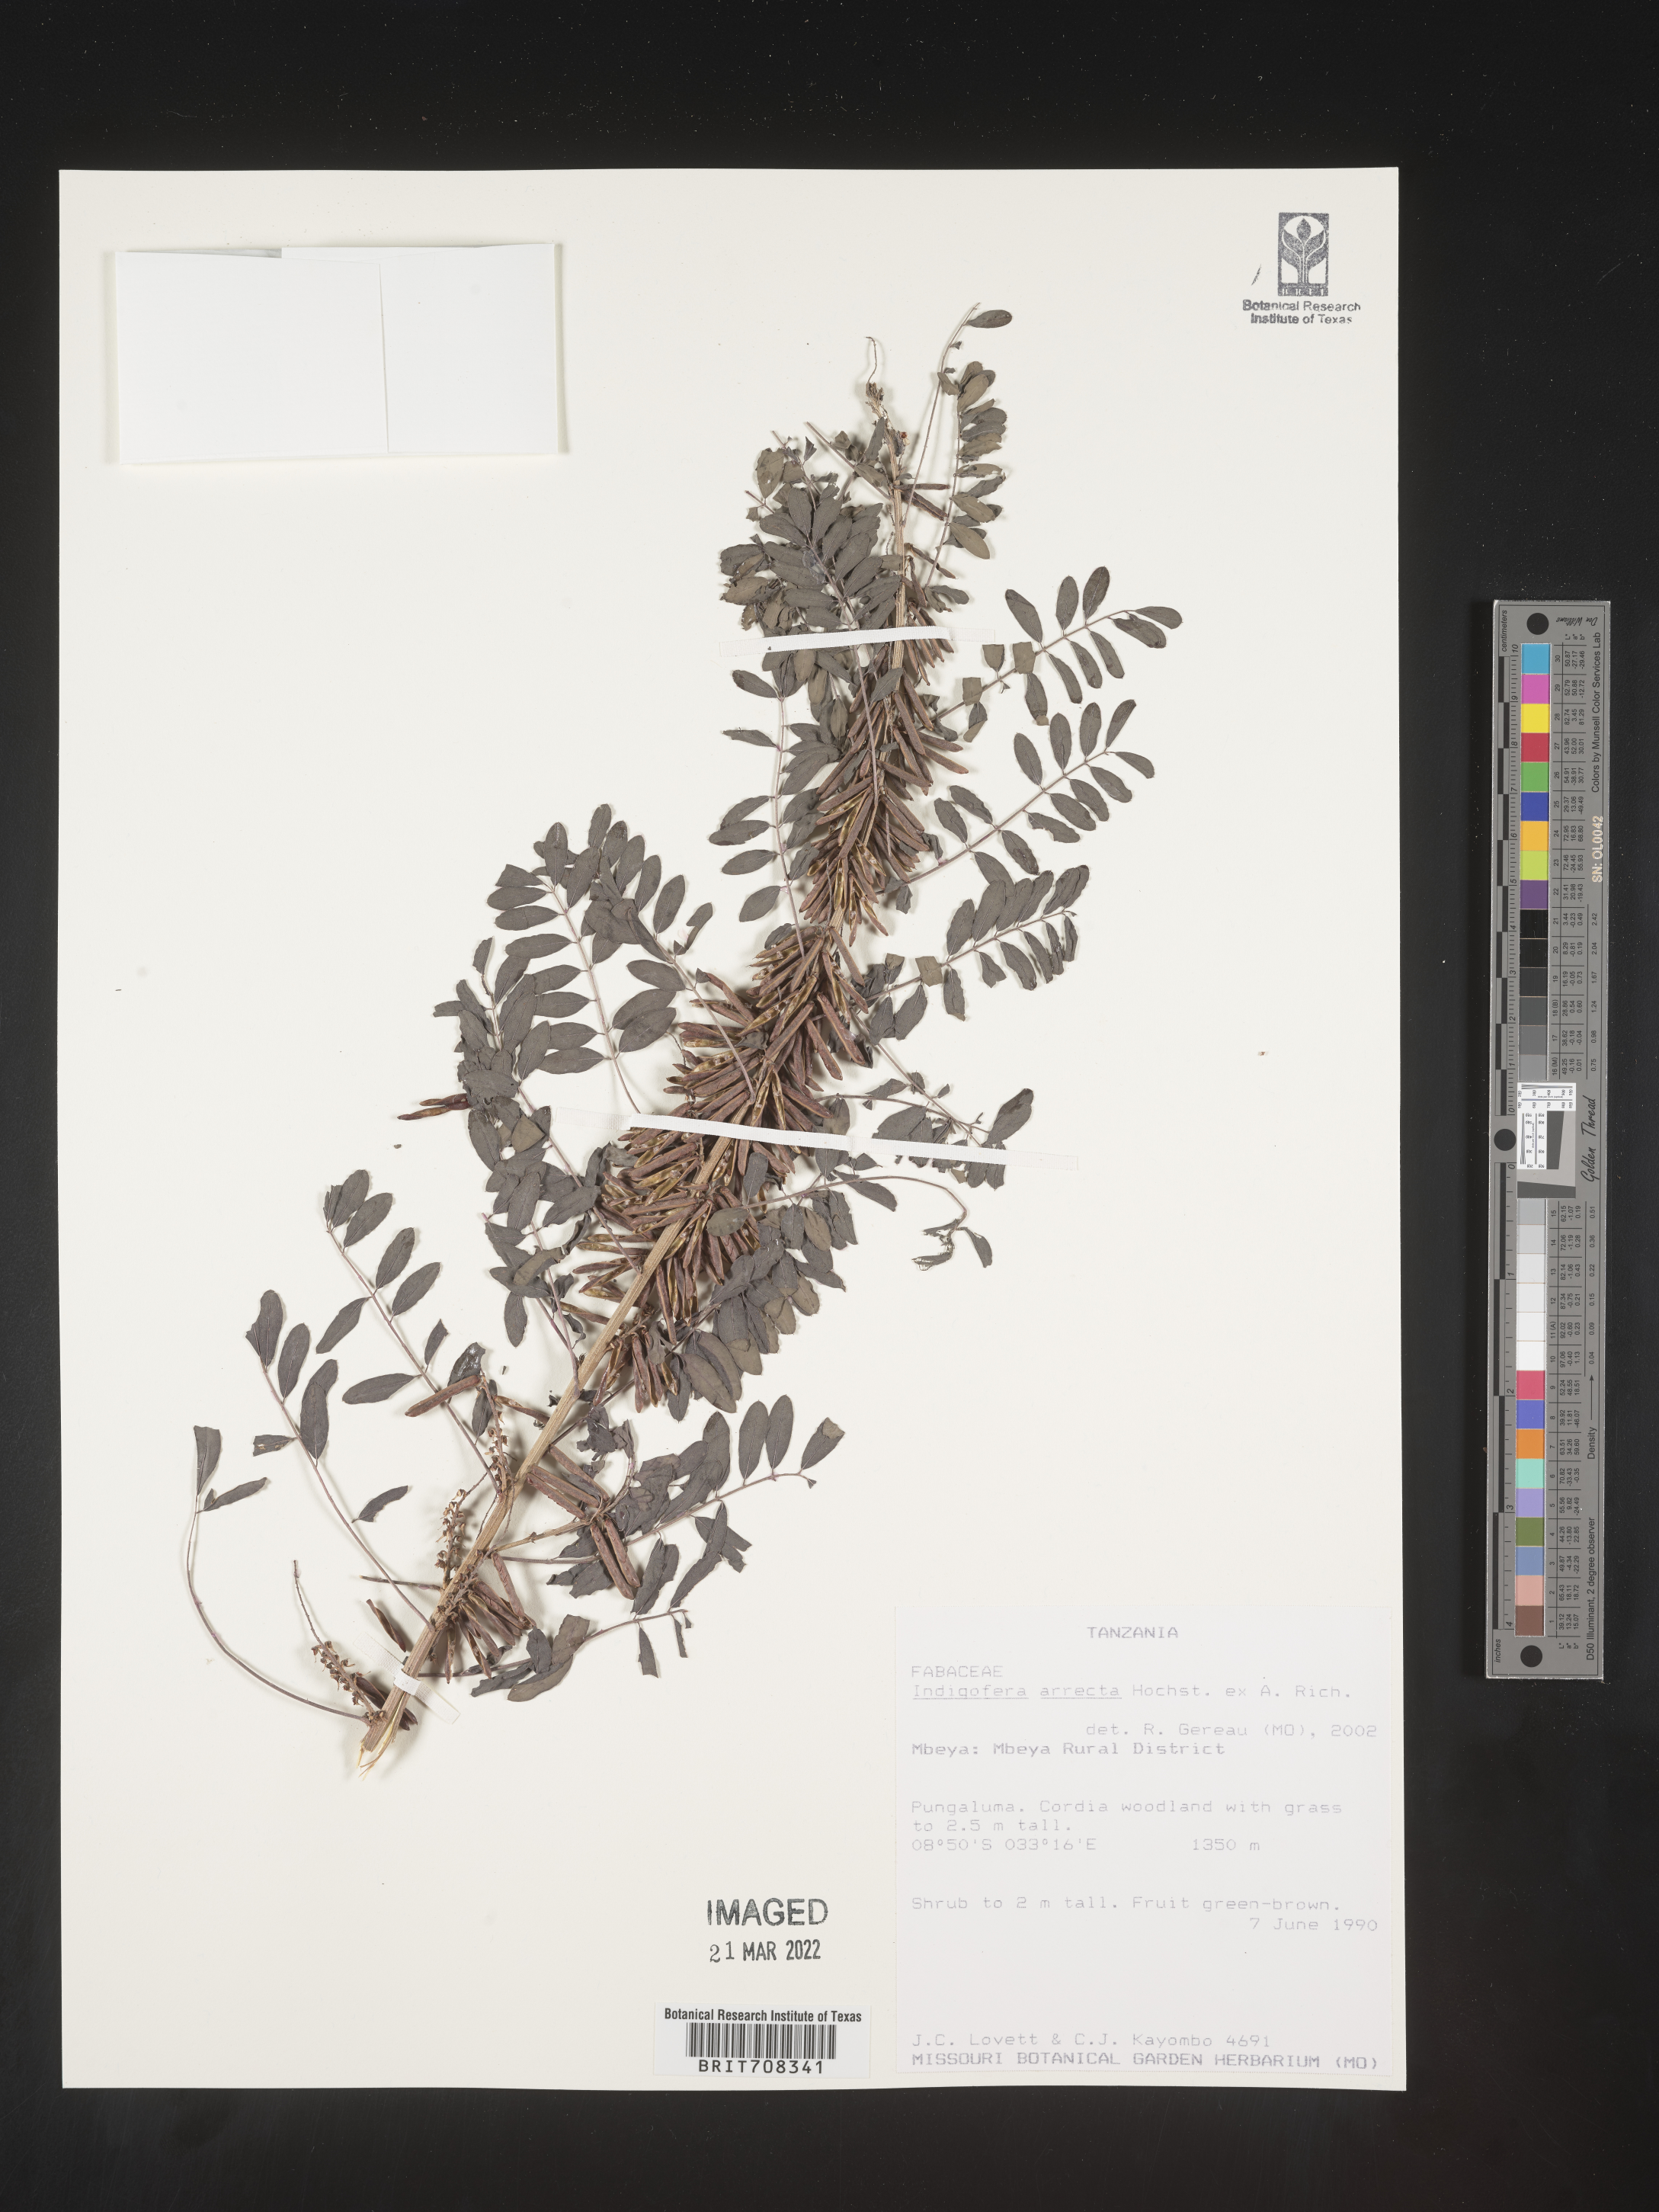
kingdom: Plantae
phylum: Tracheophyta
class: Magnoliopsida
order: Fabales
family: Fabaceae
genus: Indigofera
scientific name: Indigofera
